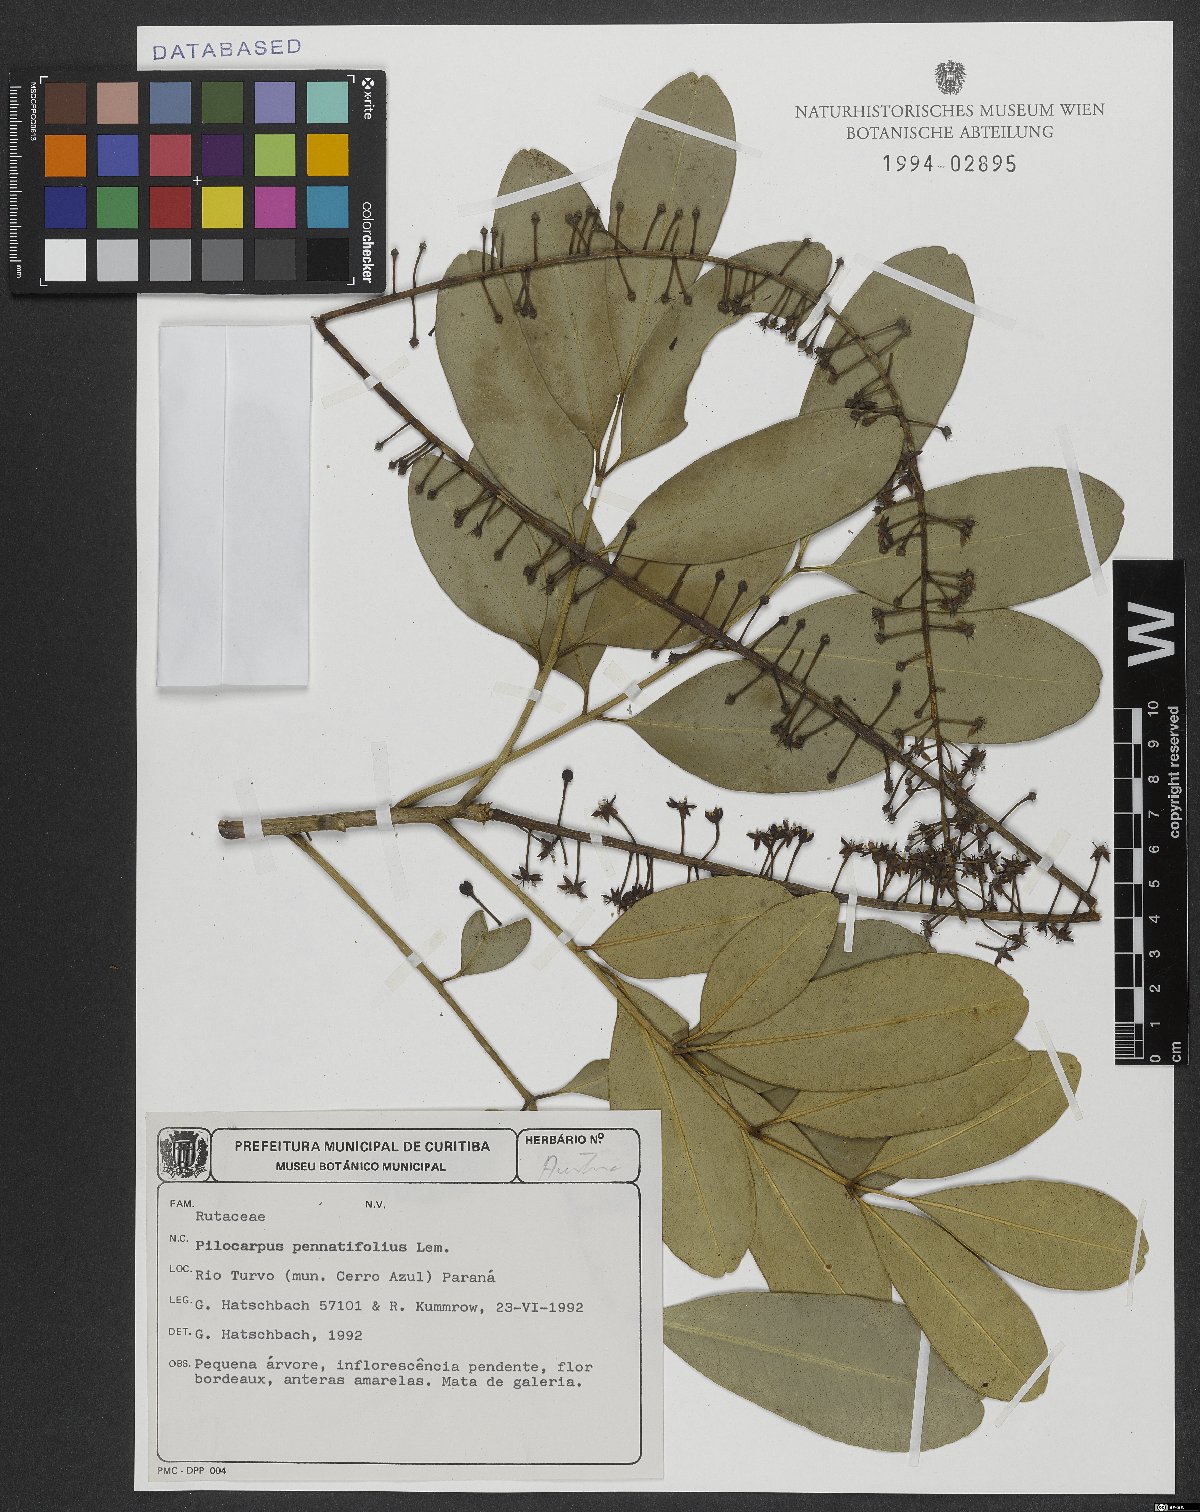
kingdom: Plantae
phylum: Tracheophyta
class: Magnoliopsida
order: Sapindales
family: Rutaceae
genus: Pilocarpus
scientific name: Pilocarpus pennatifolius
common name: Paraguay jaborandi
